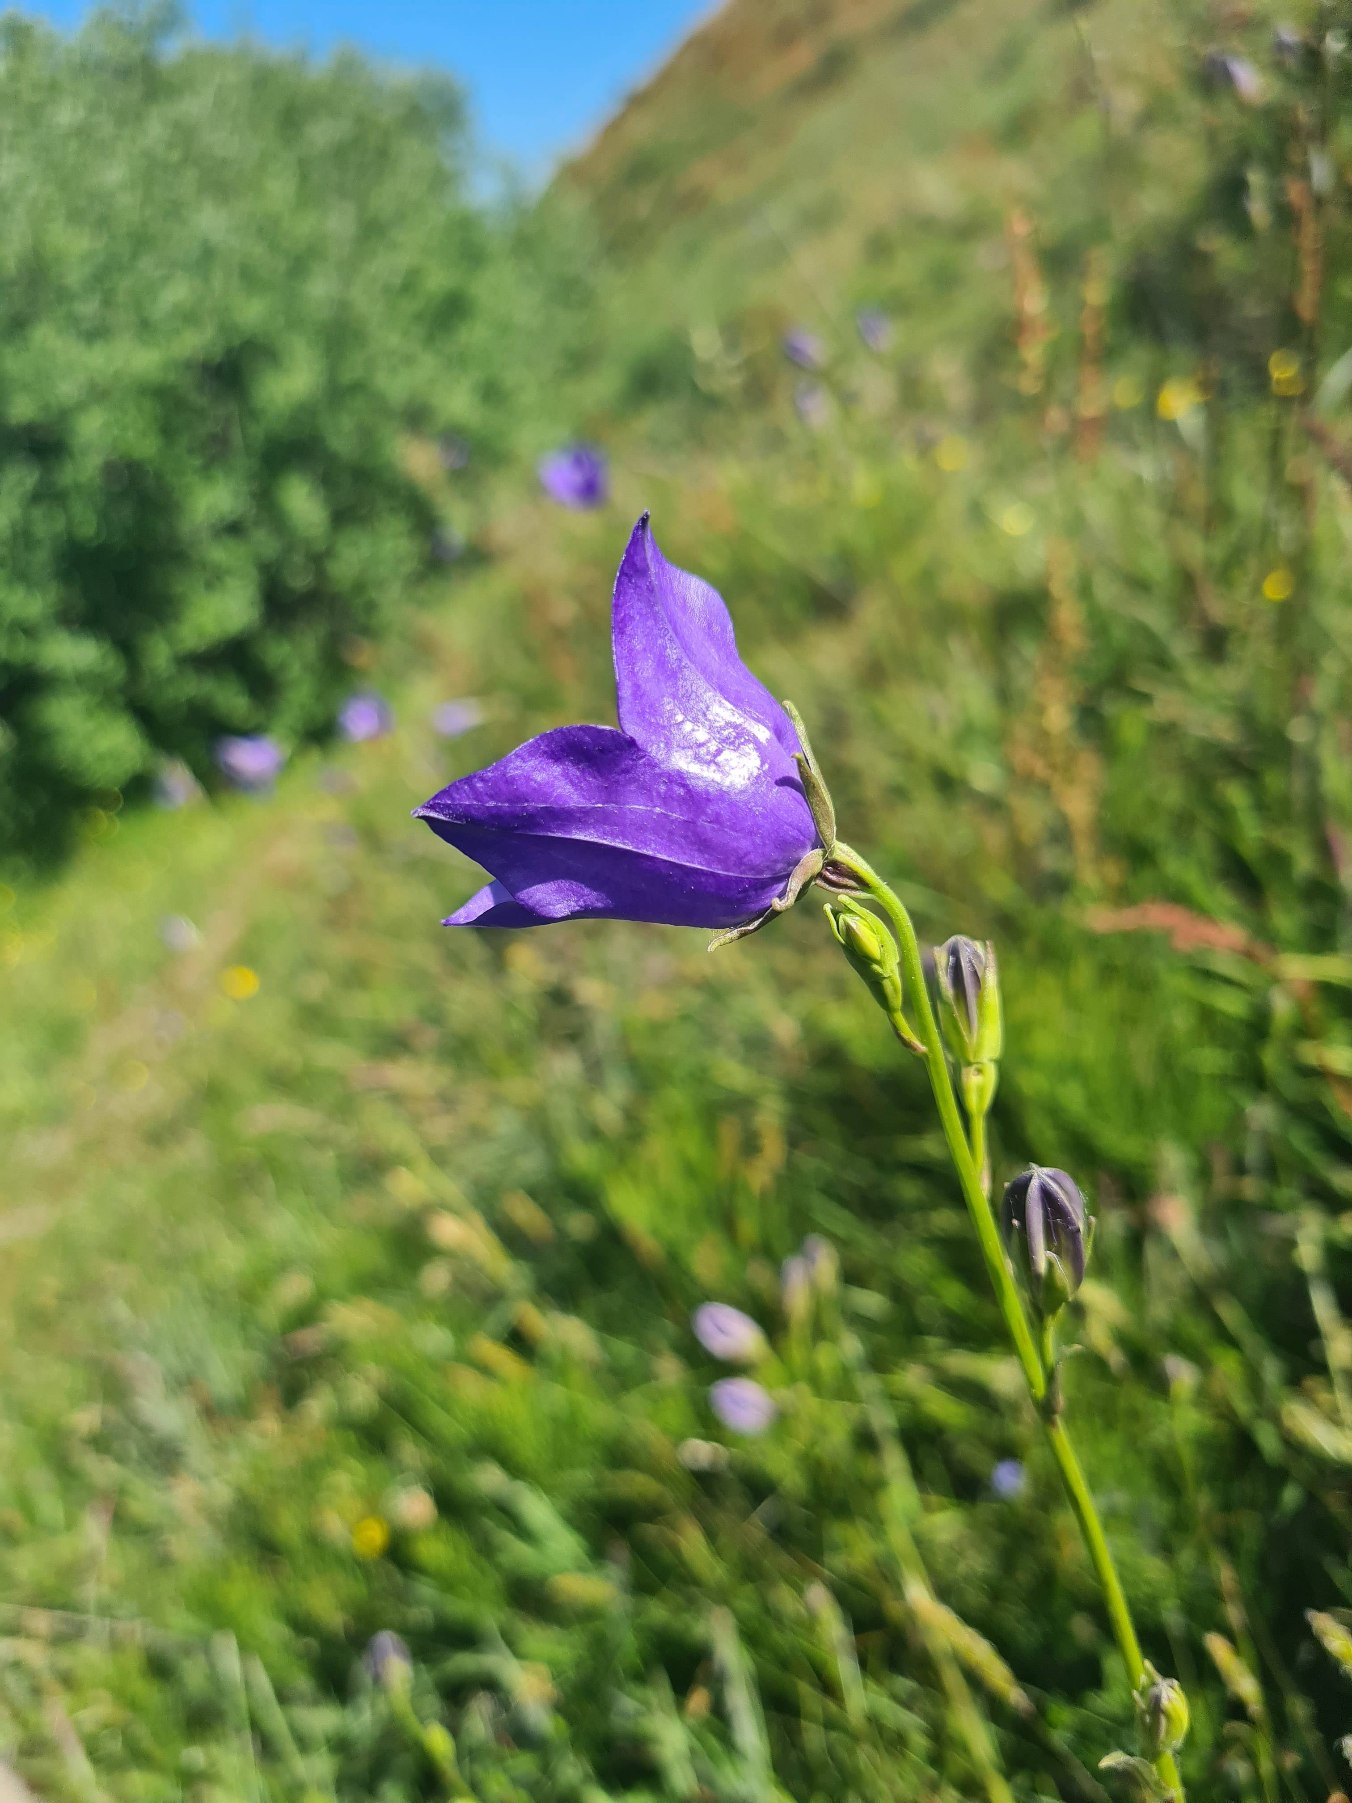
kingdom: Plantae
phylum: Tracheophyta
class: Magnoliopsida
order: Asterales
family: Campanulaceae
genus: Campanula
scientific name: Campanula persicifolia
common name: Smalbladet klokke
